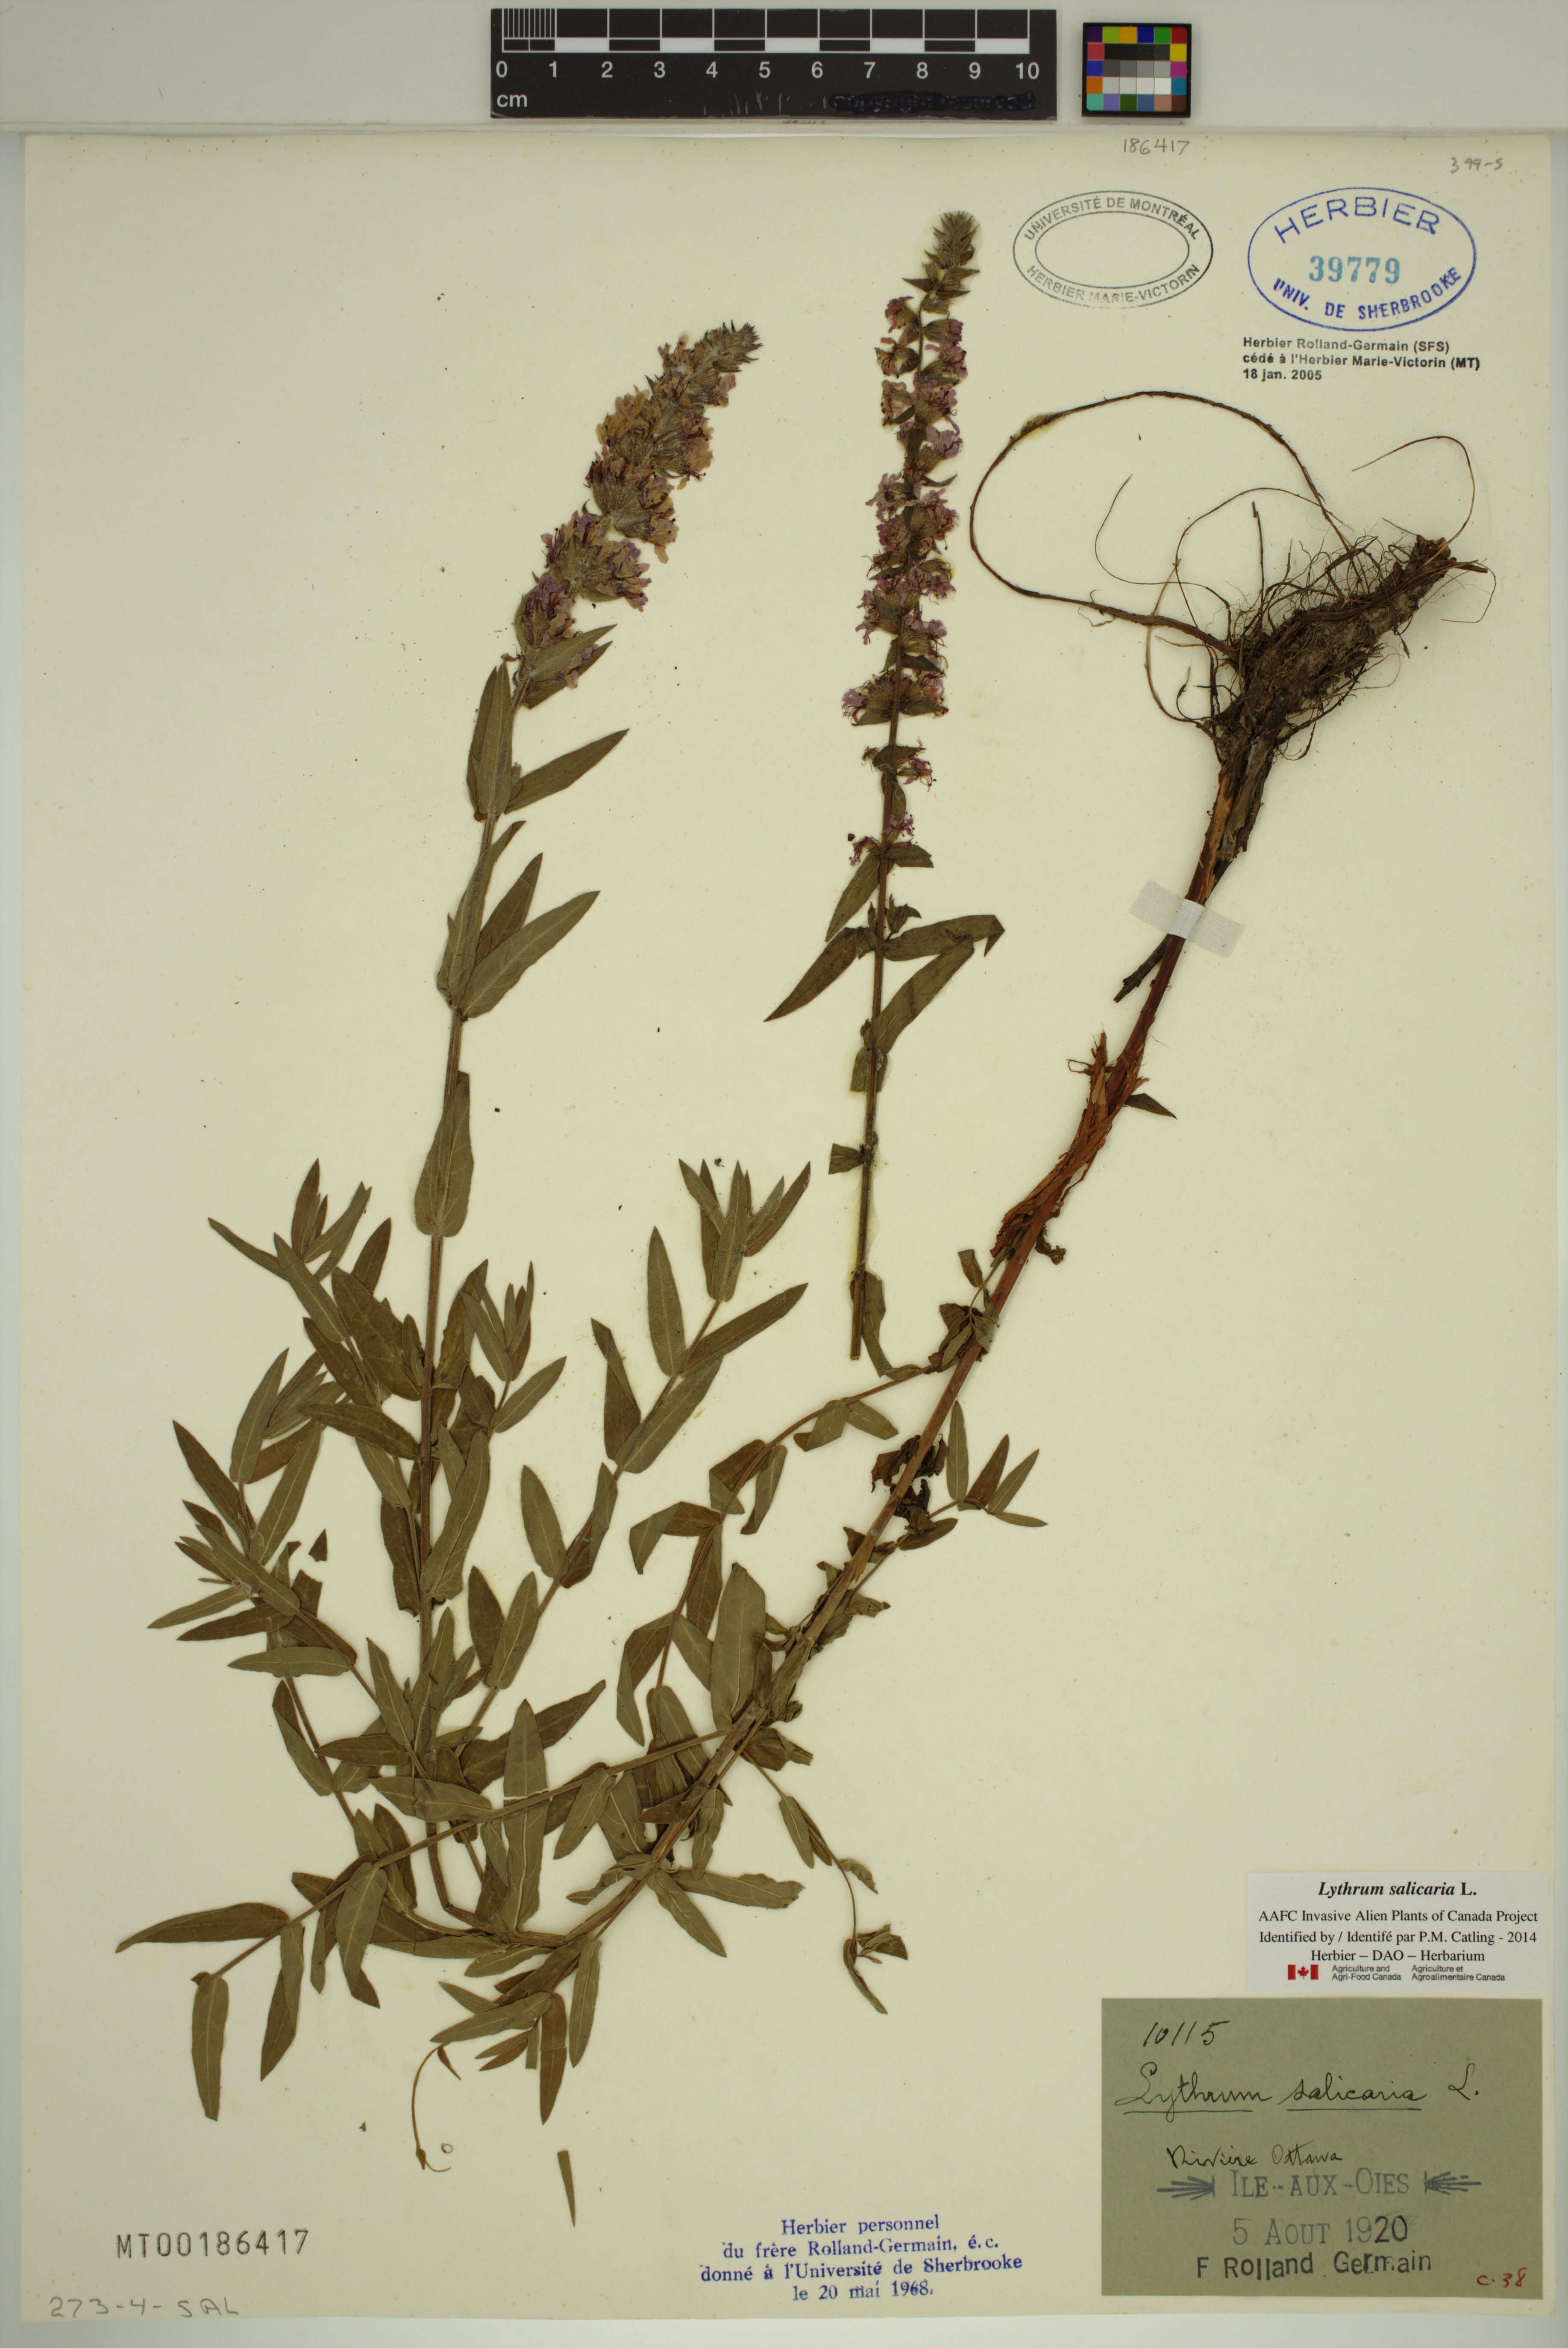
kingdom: Plantae
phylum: Tracheophyta
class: Magnoliopsida
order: Myrtales
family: Lythraceae
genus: Lythrum
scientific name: Lythrum salicaria
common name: Purple loosestrife
